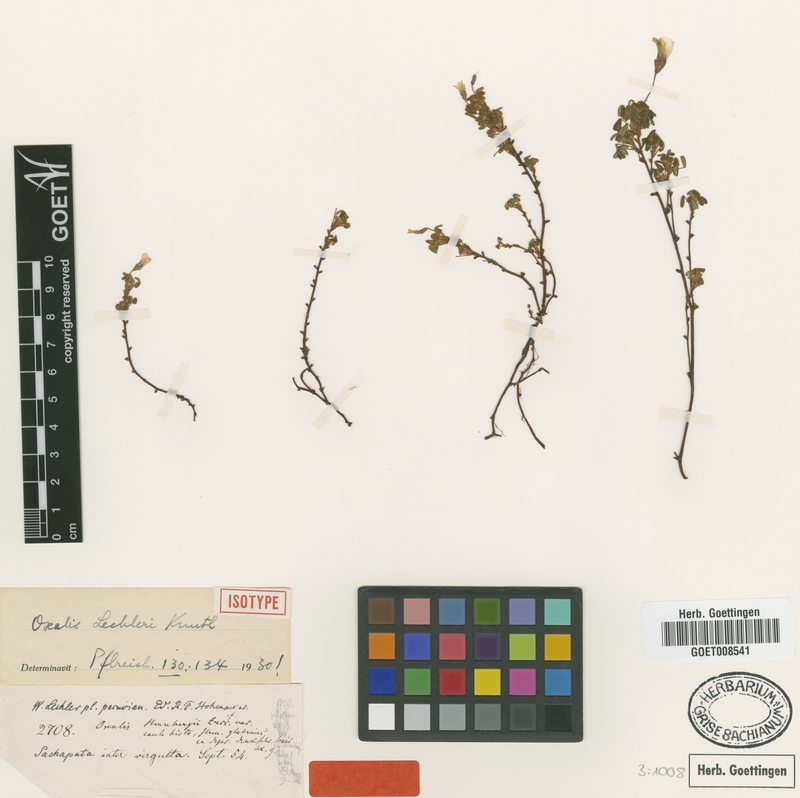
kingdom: Plantae
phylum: Tracheophyta
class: Magnoliopsida
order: Oxalidales
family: Oxalidaceae
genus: Oxalis
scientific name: Oxalis phaeotricha
